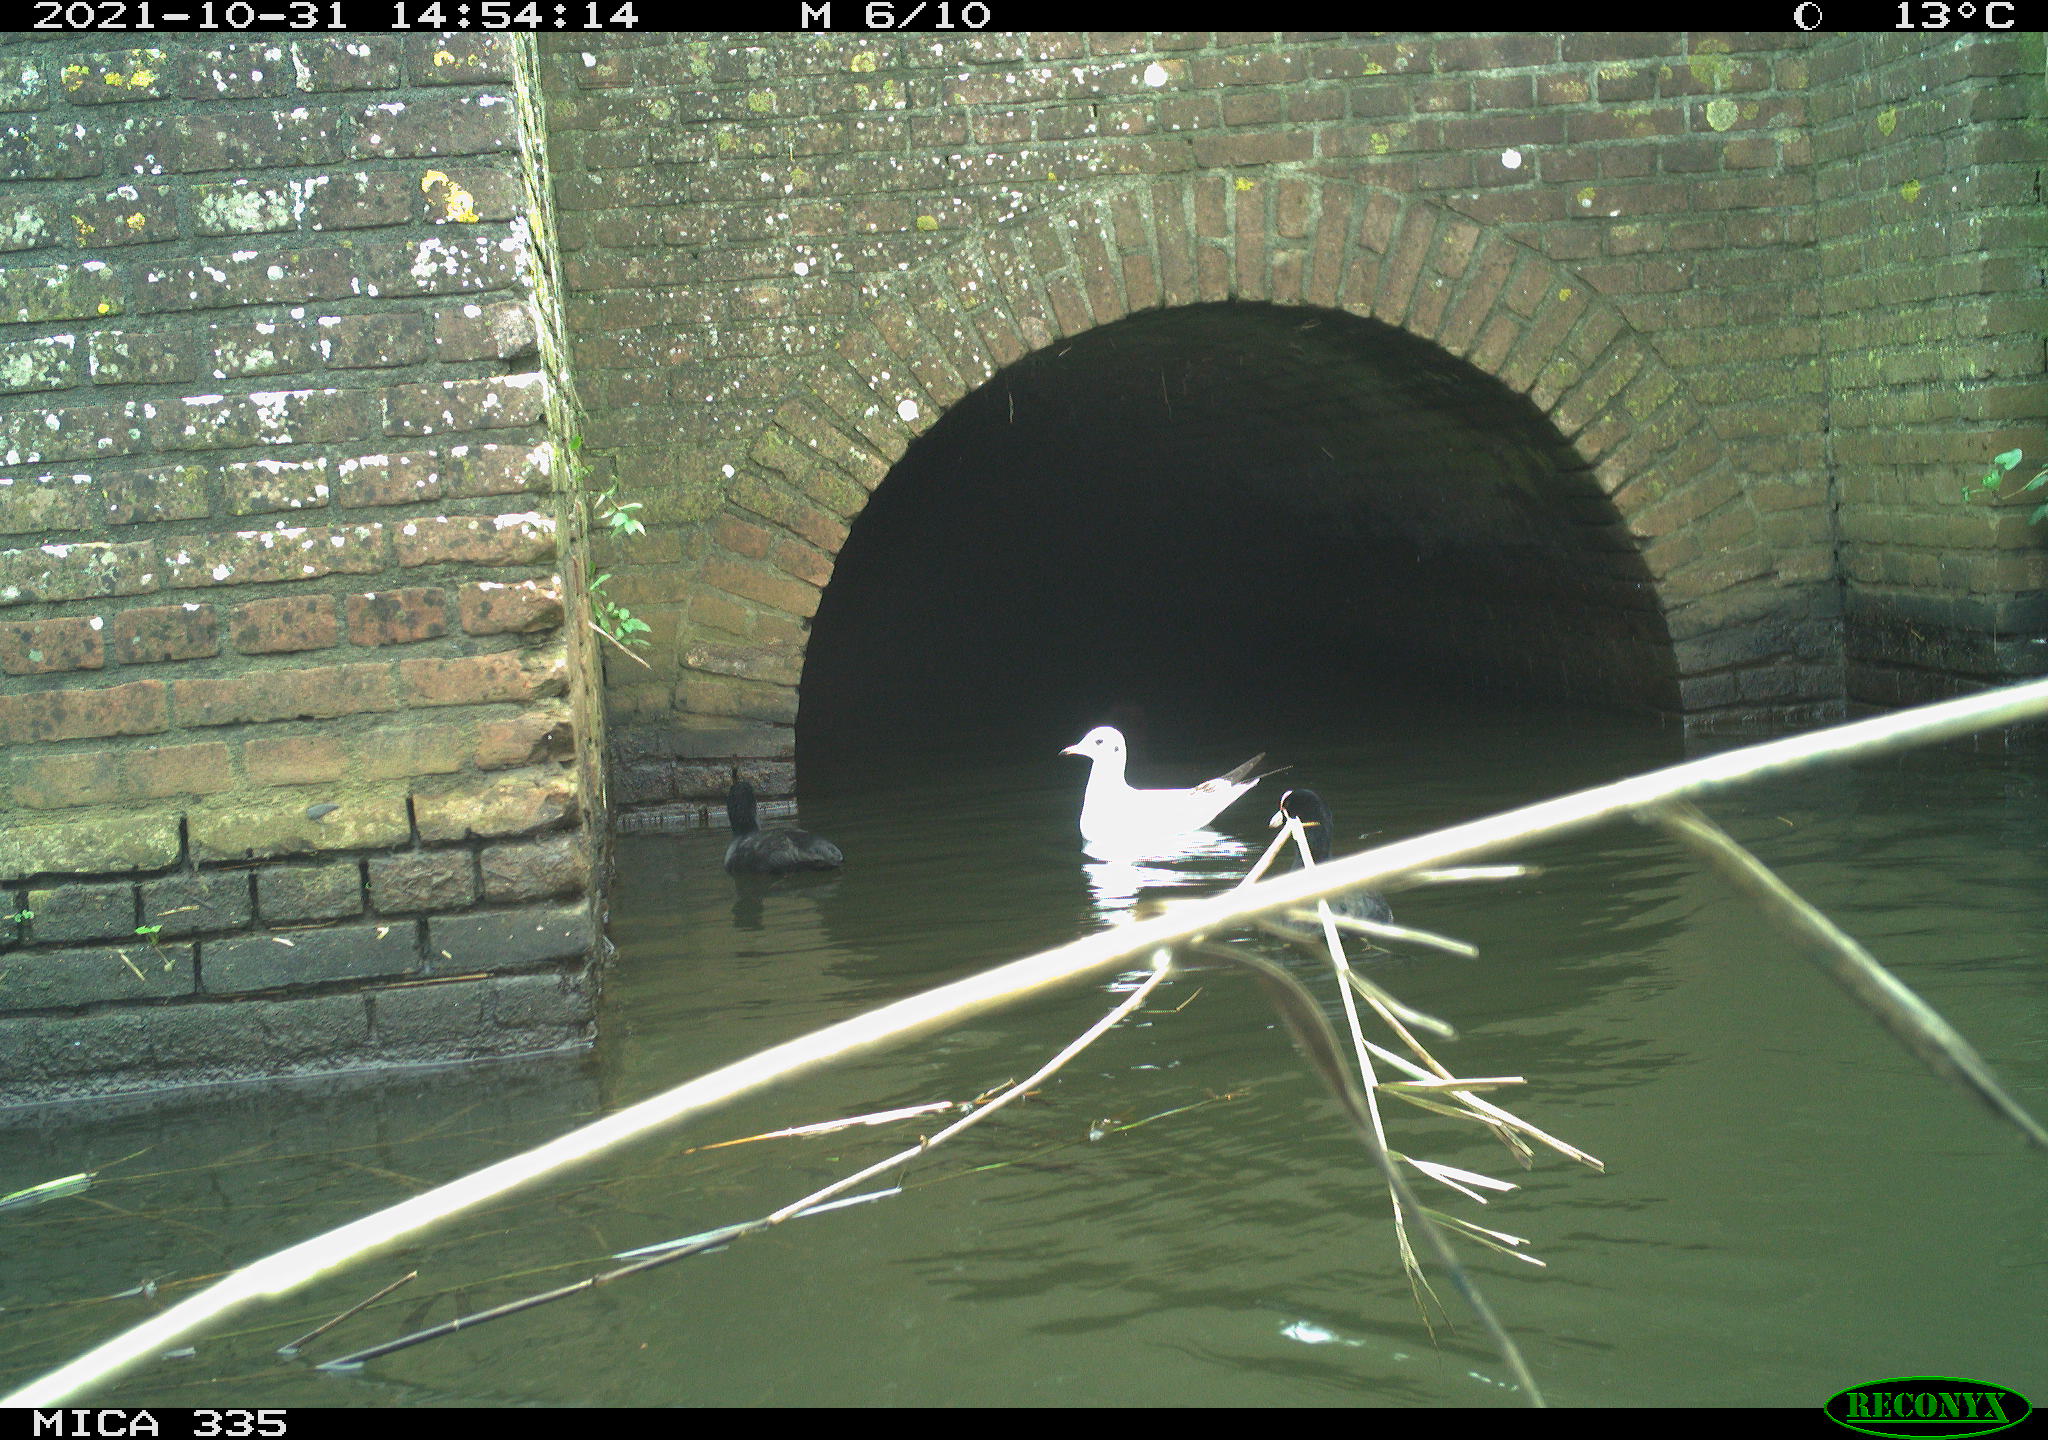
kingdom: Animalia
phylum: Chordata
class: Aves
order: Gruiformes
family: Rallidae
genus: Fulica
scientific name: Fulica atra
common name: Eurasian coot
